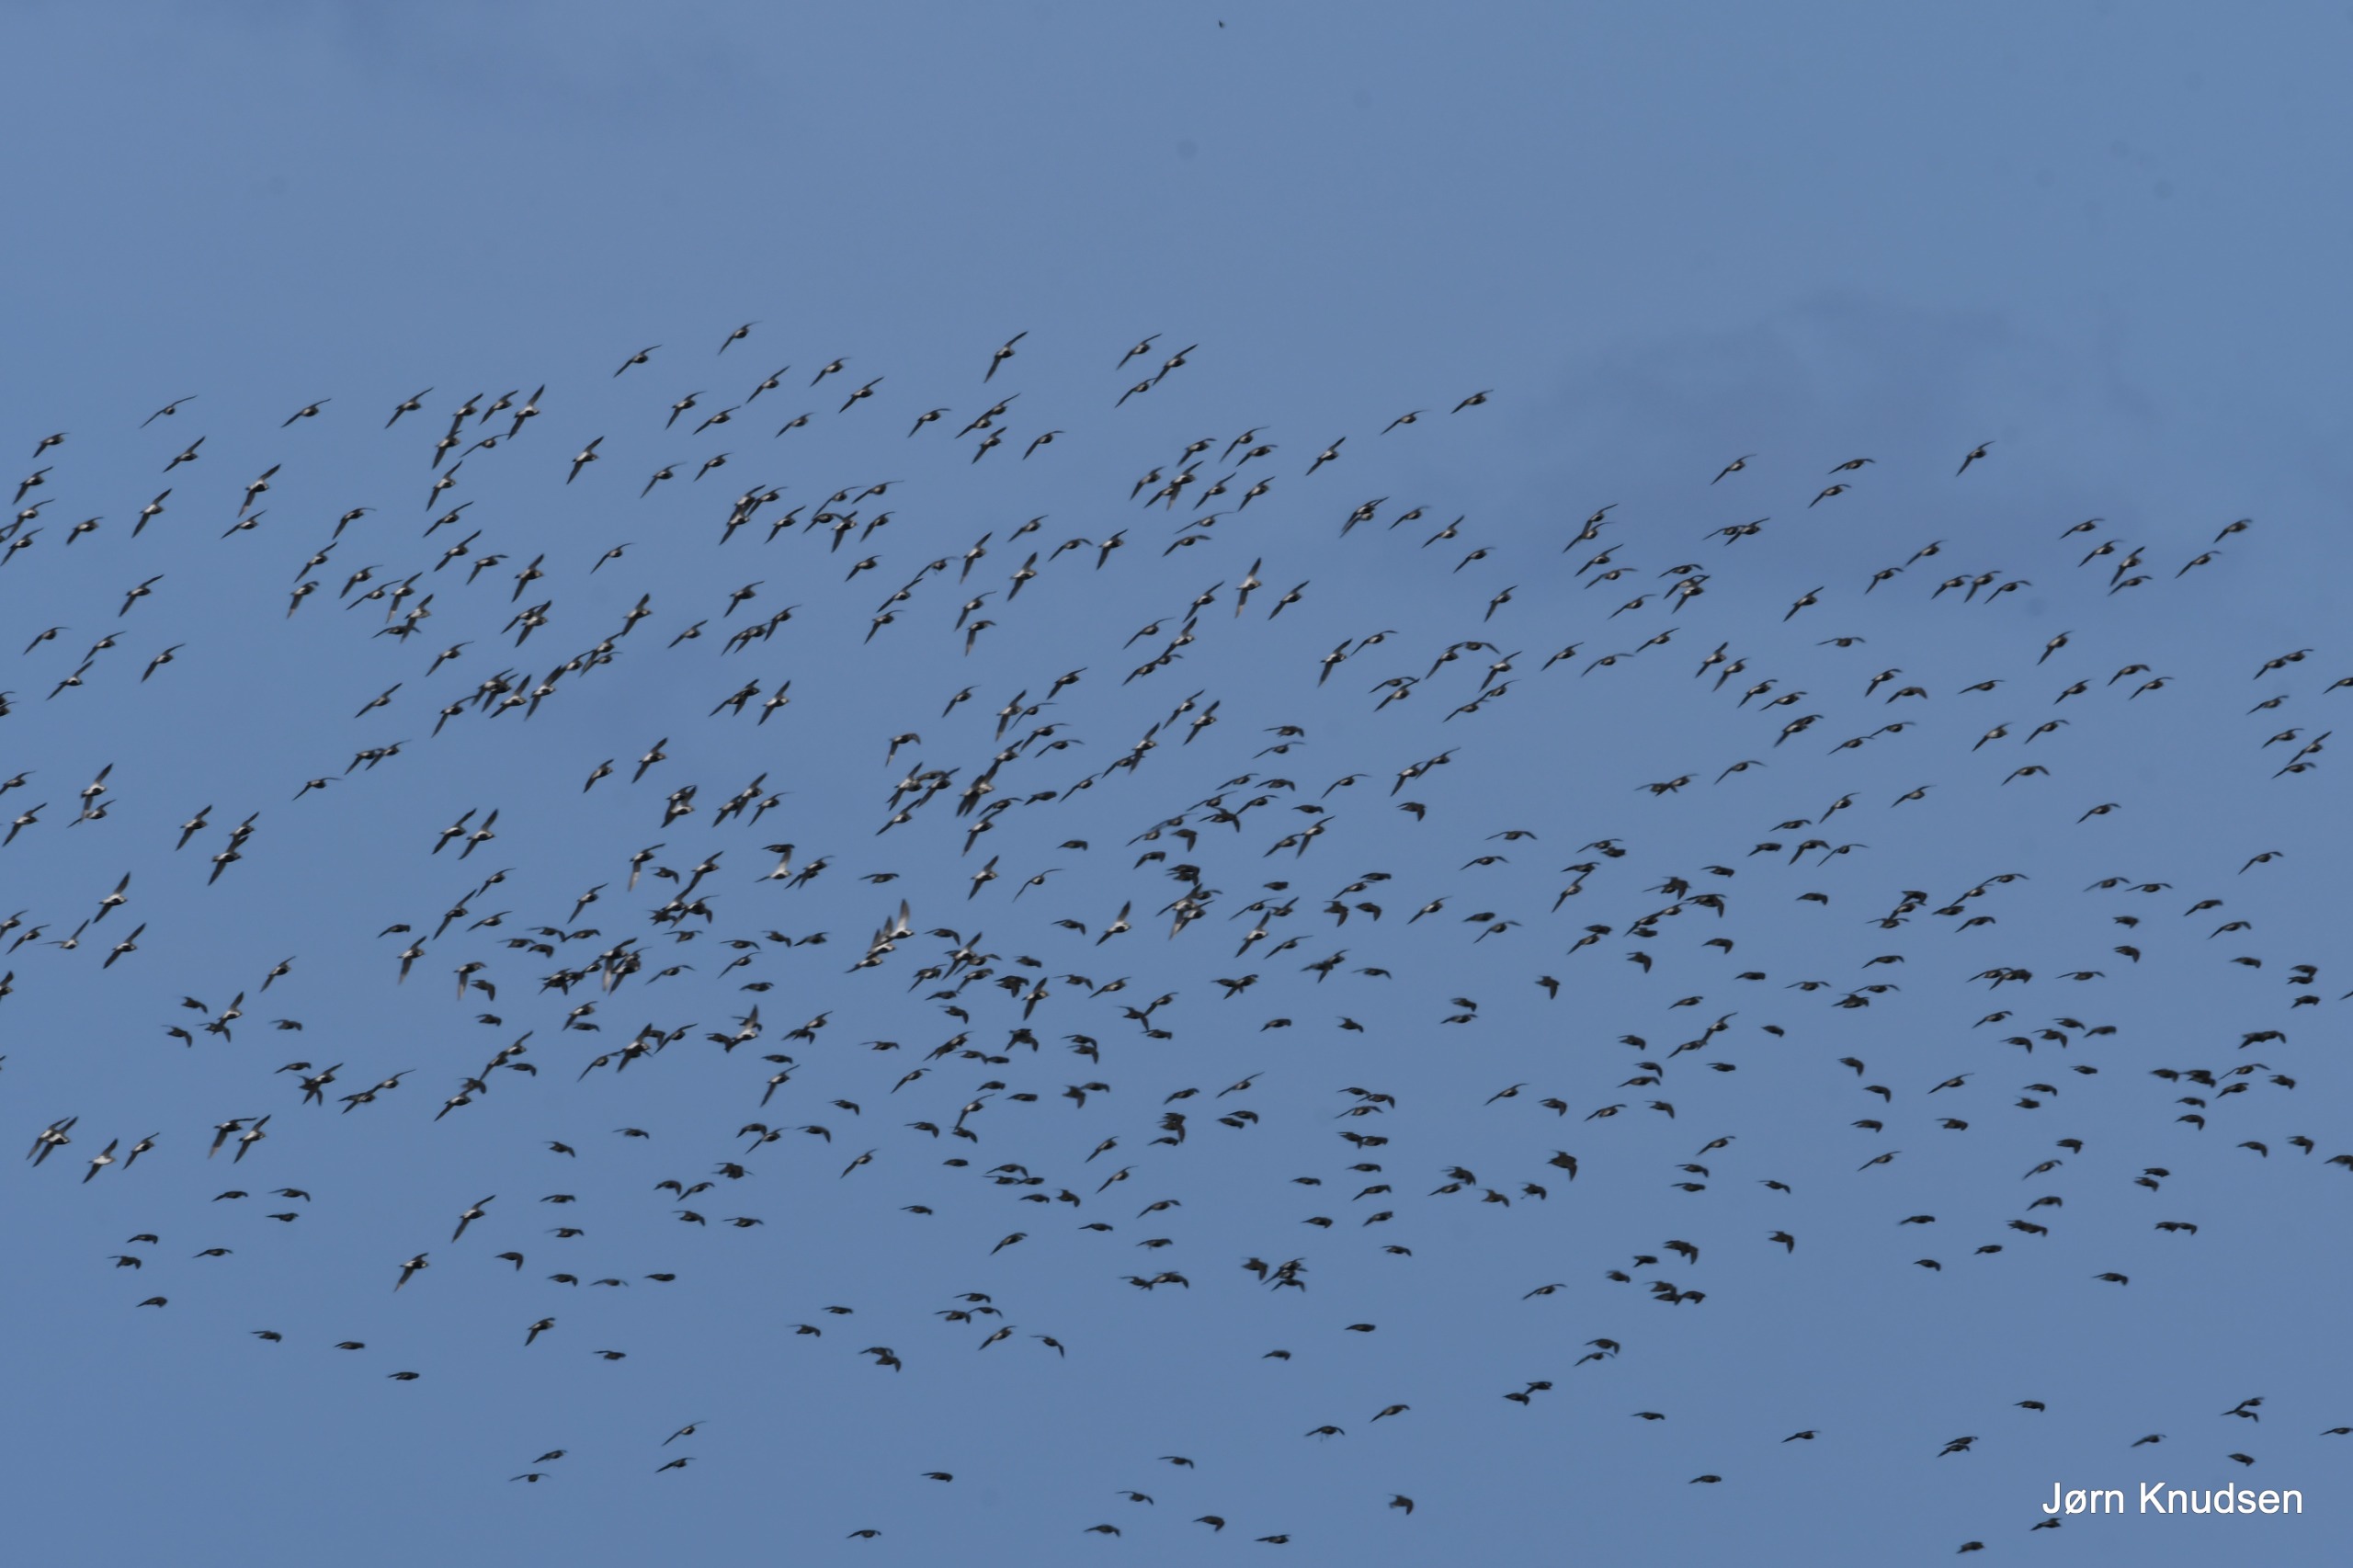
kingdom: Animalia
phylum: Chordata
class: Aves
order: Charadriiformes
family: Charadriidae
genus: Pluvialis
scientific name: Pluvialis apricaria
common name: Hjejle
